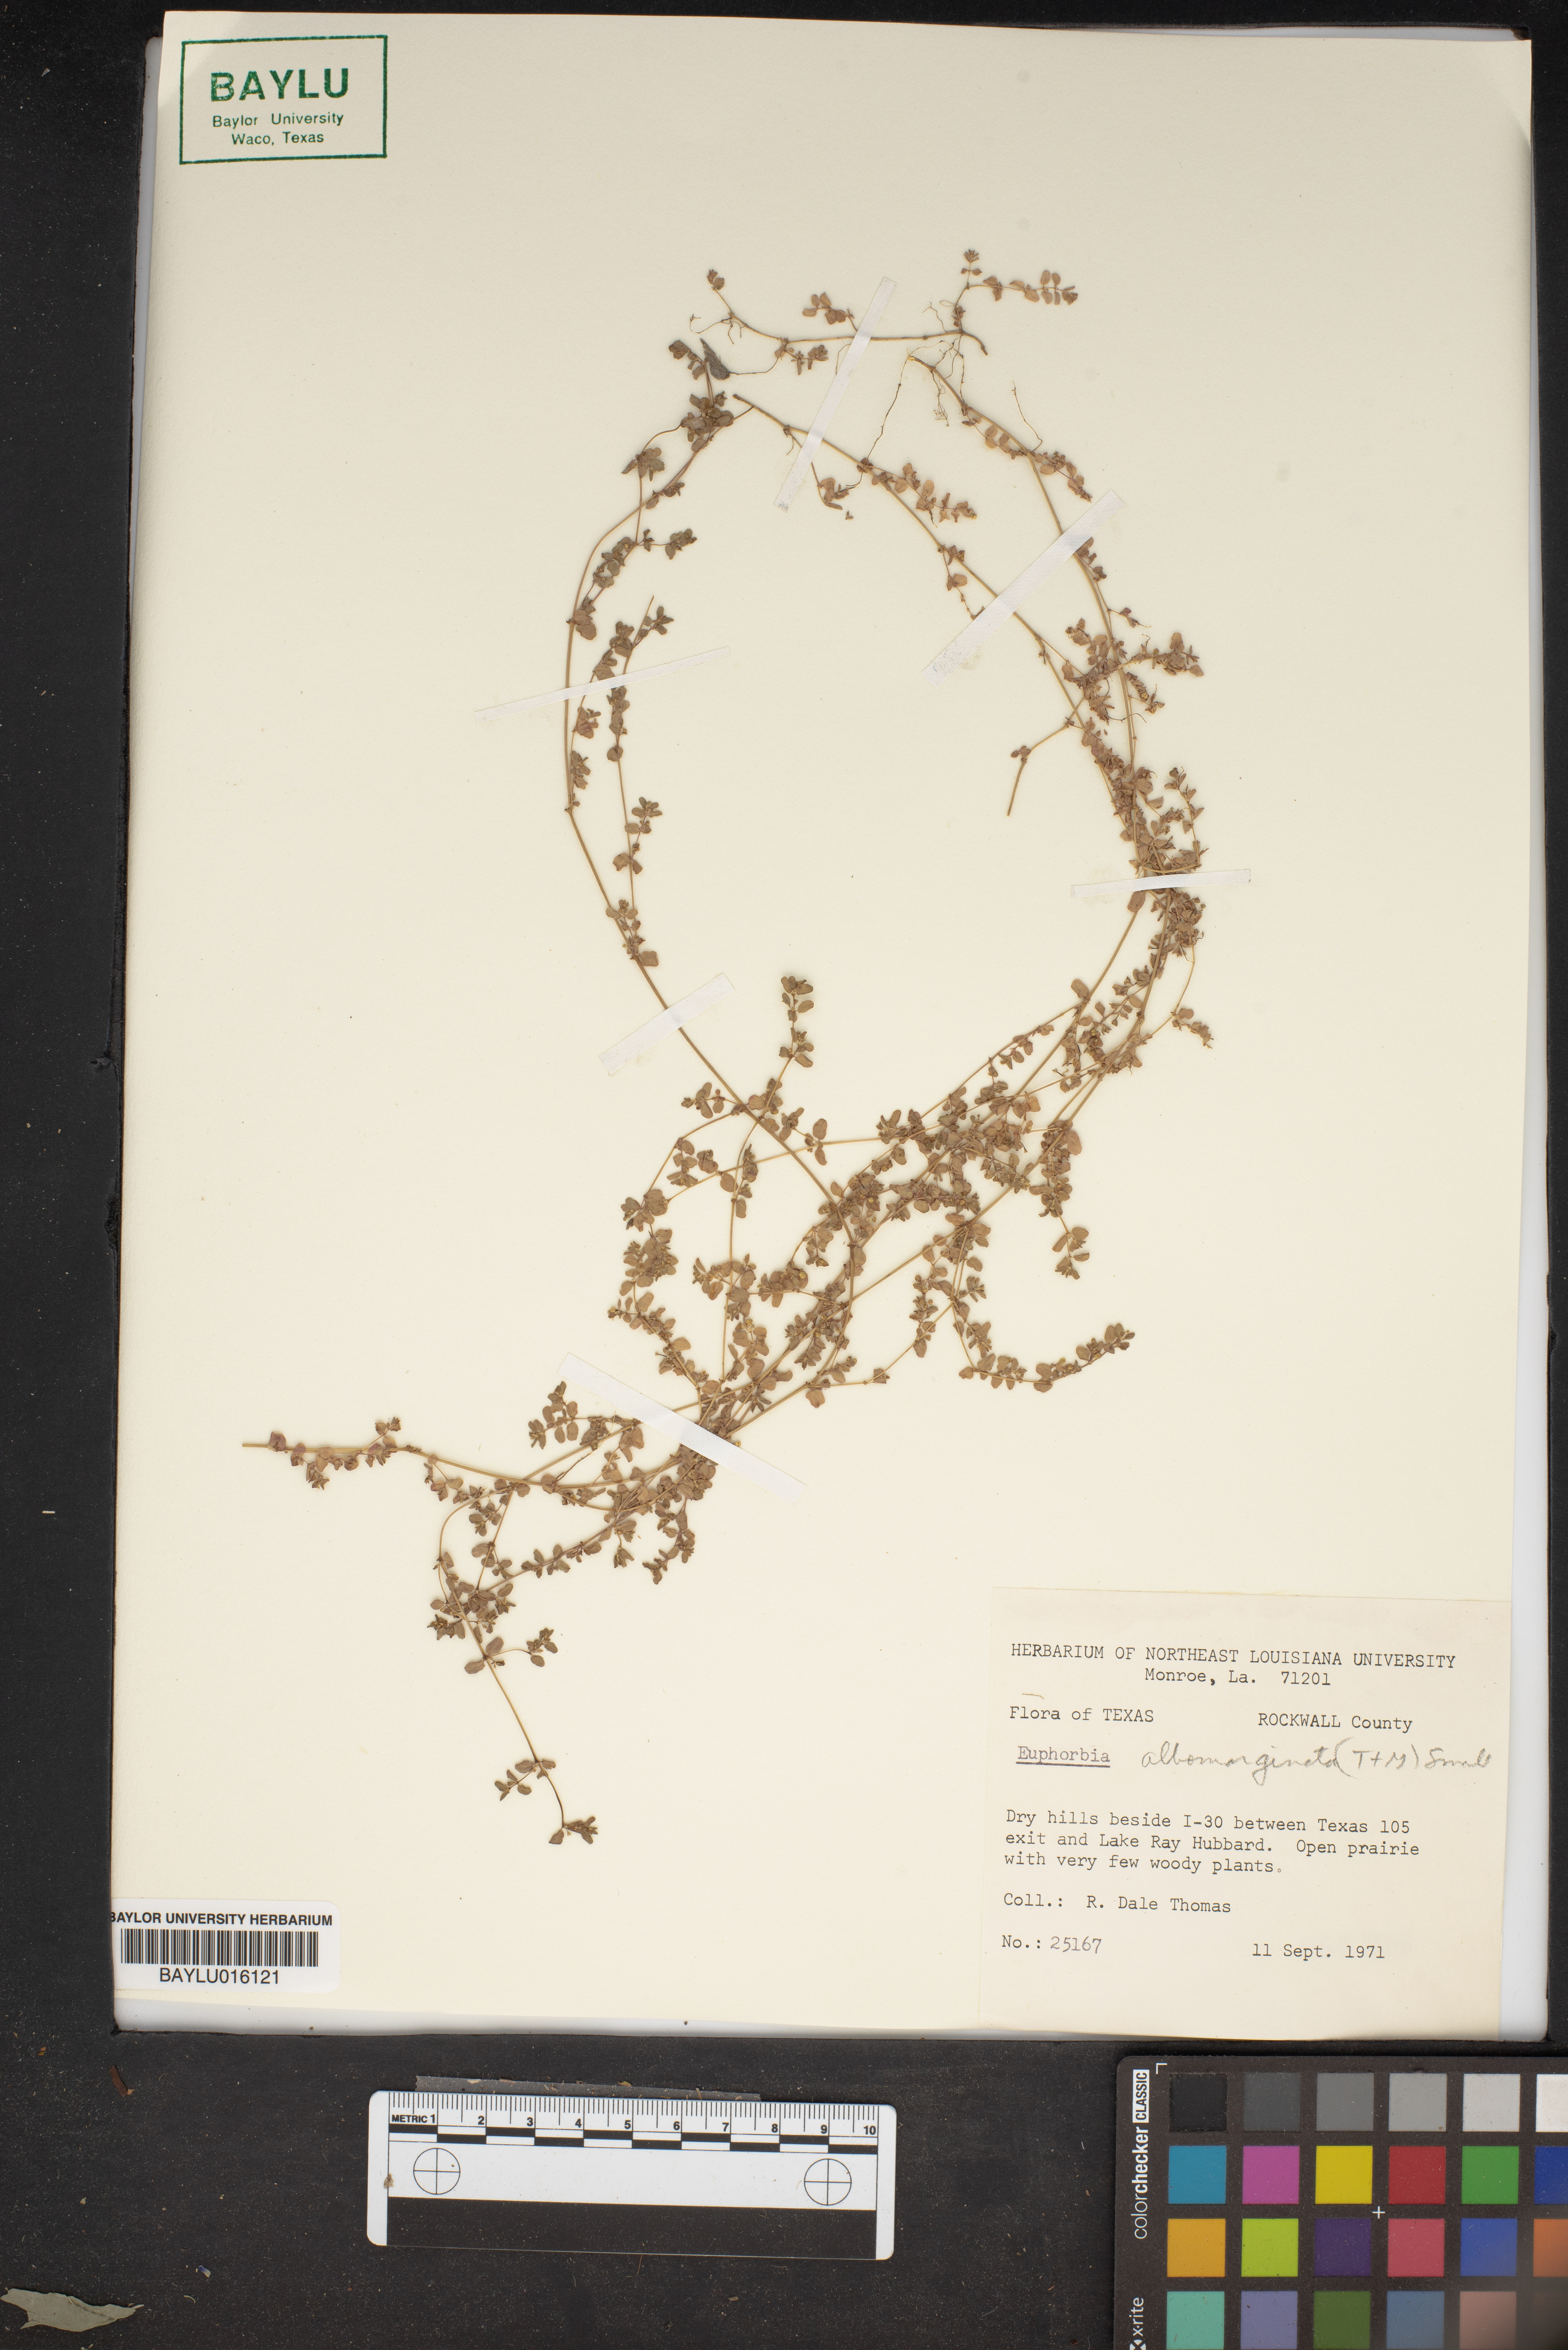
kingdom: Plantae
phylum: Tracheophyta
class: Magnoliopsida
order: Malpighiales
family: Euphorbiaceae
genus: Euphorbia
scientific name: Euphorbia albomarginata
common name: Whitemargin sandmat
